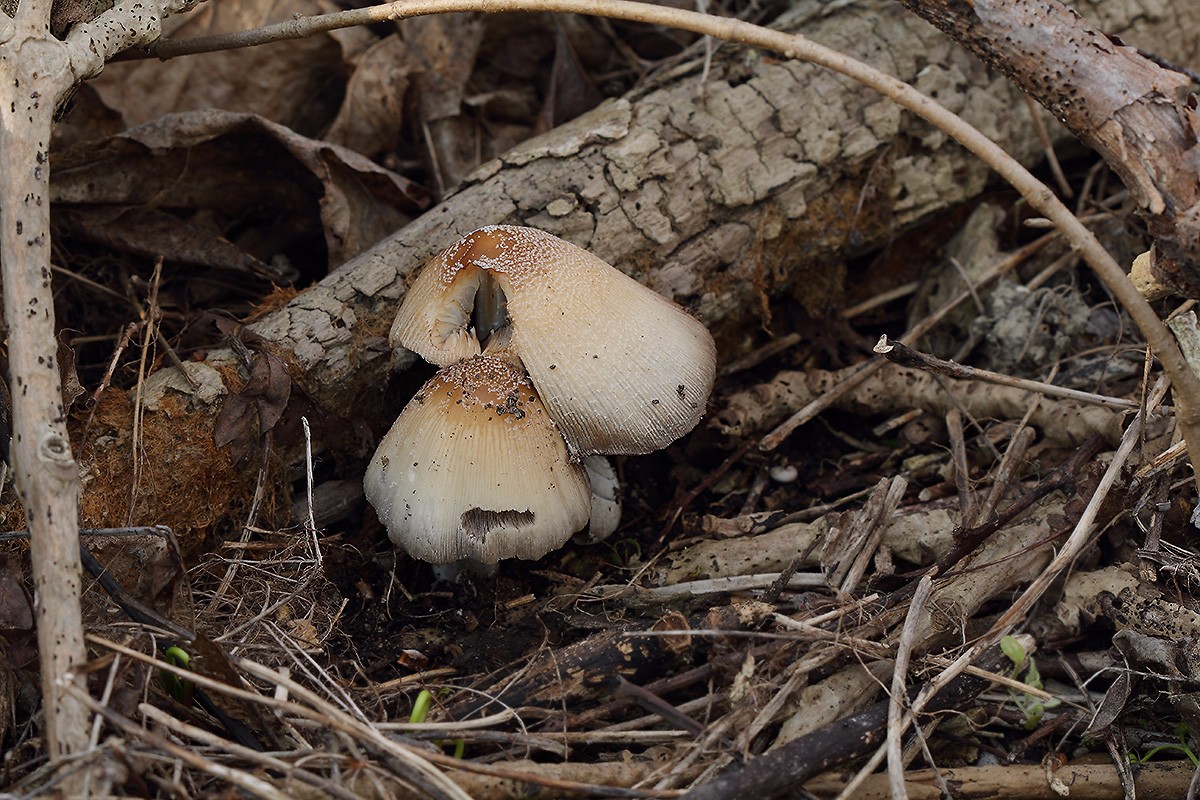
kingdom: Fungi
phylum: Basidiomycota
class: Agaricomycetes
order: Agaricales
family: Psathyrellaceae
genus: Coprinellus
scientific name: Coprinellus domesticus
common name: hus-blækhat
